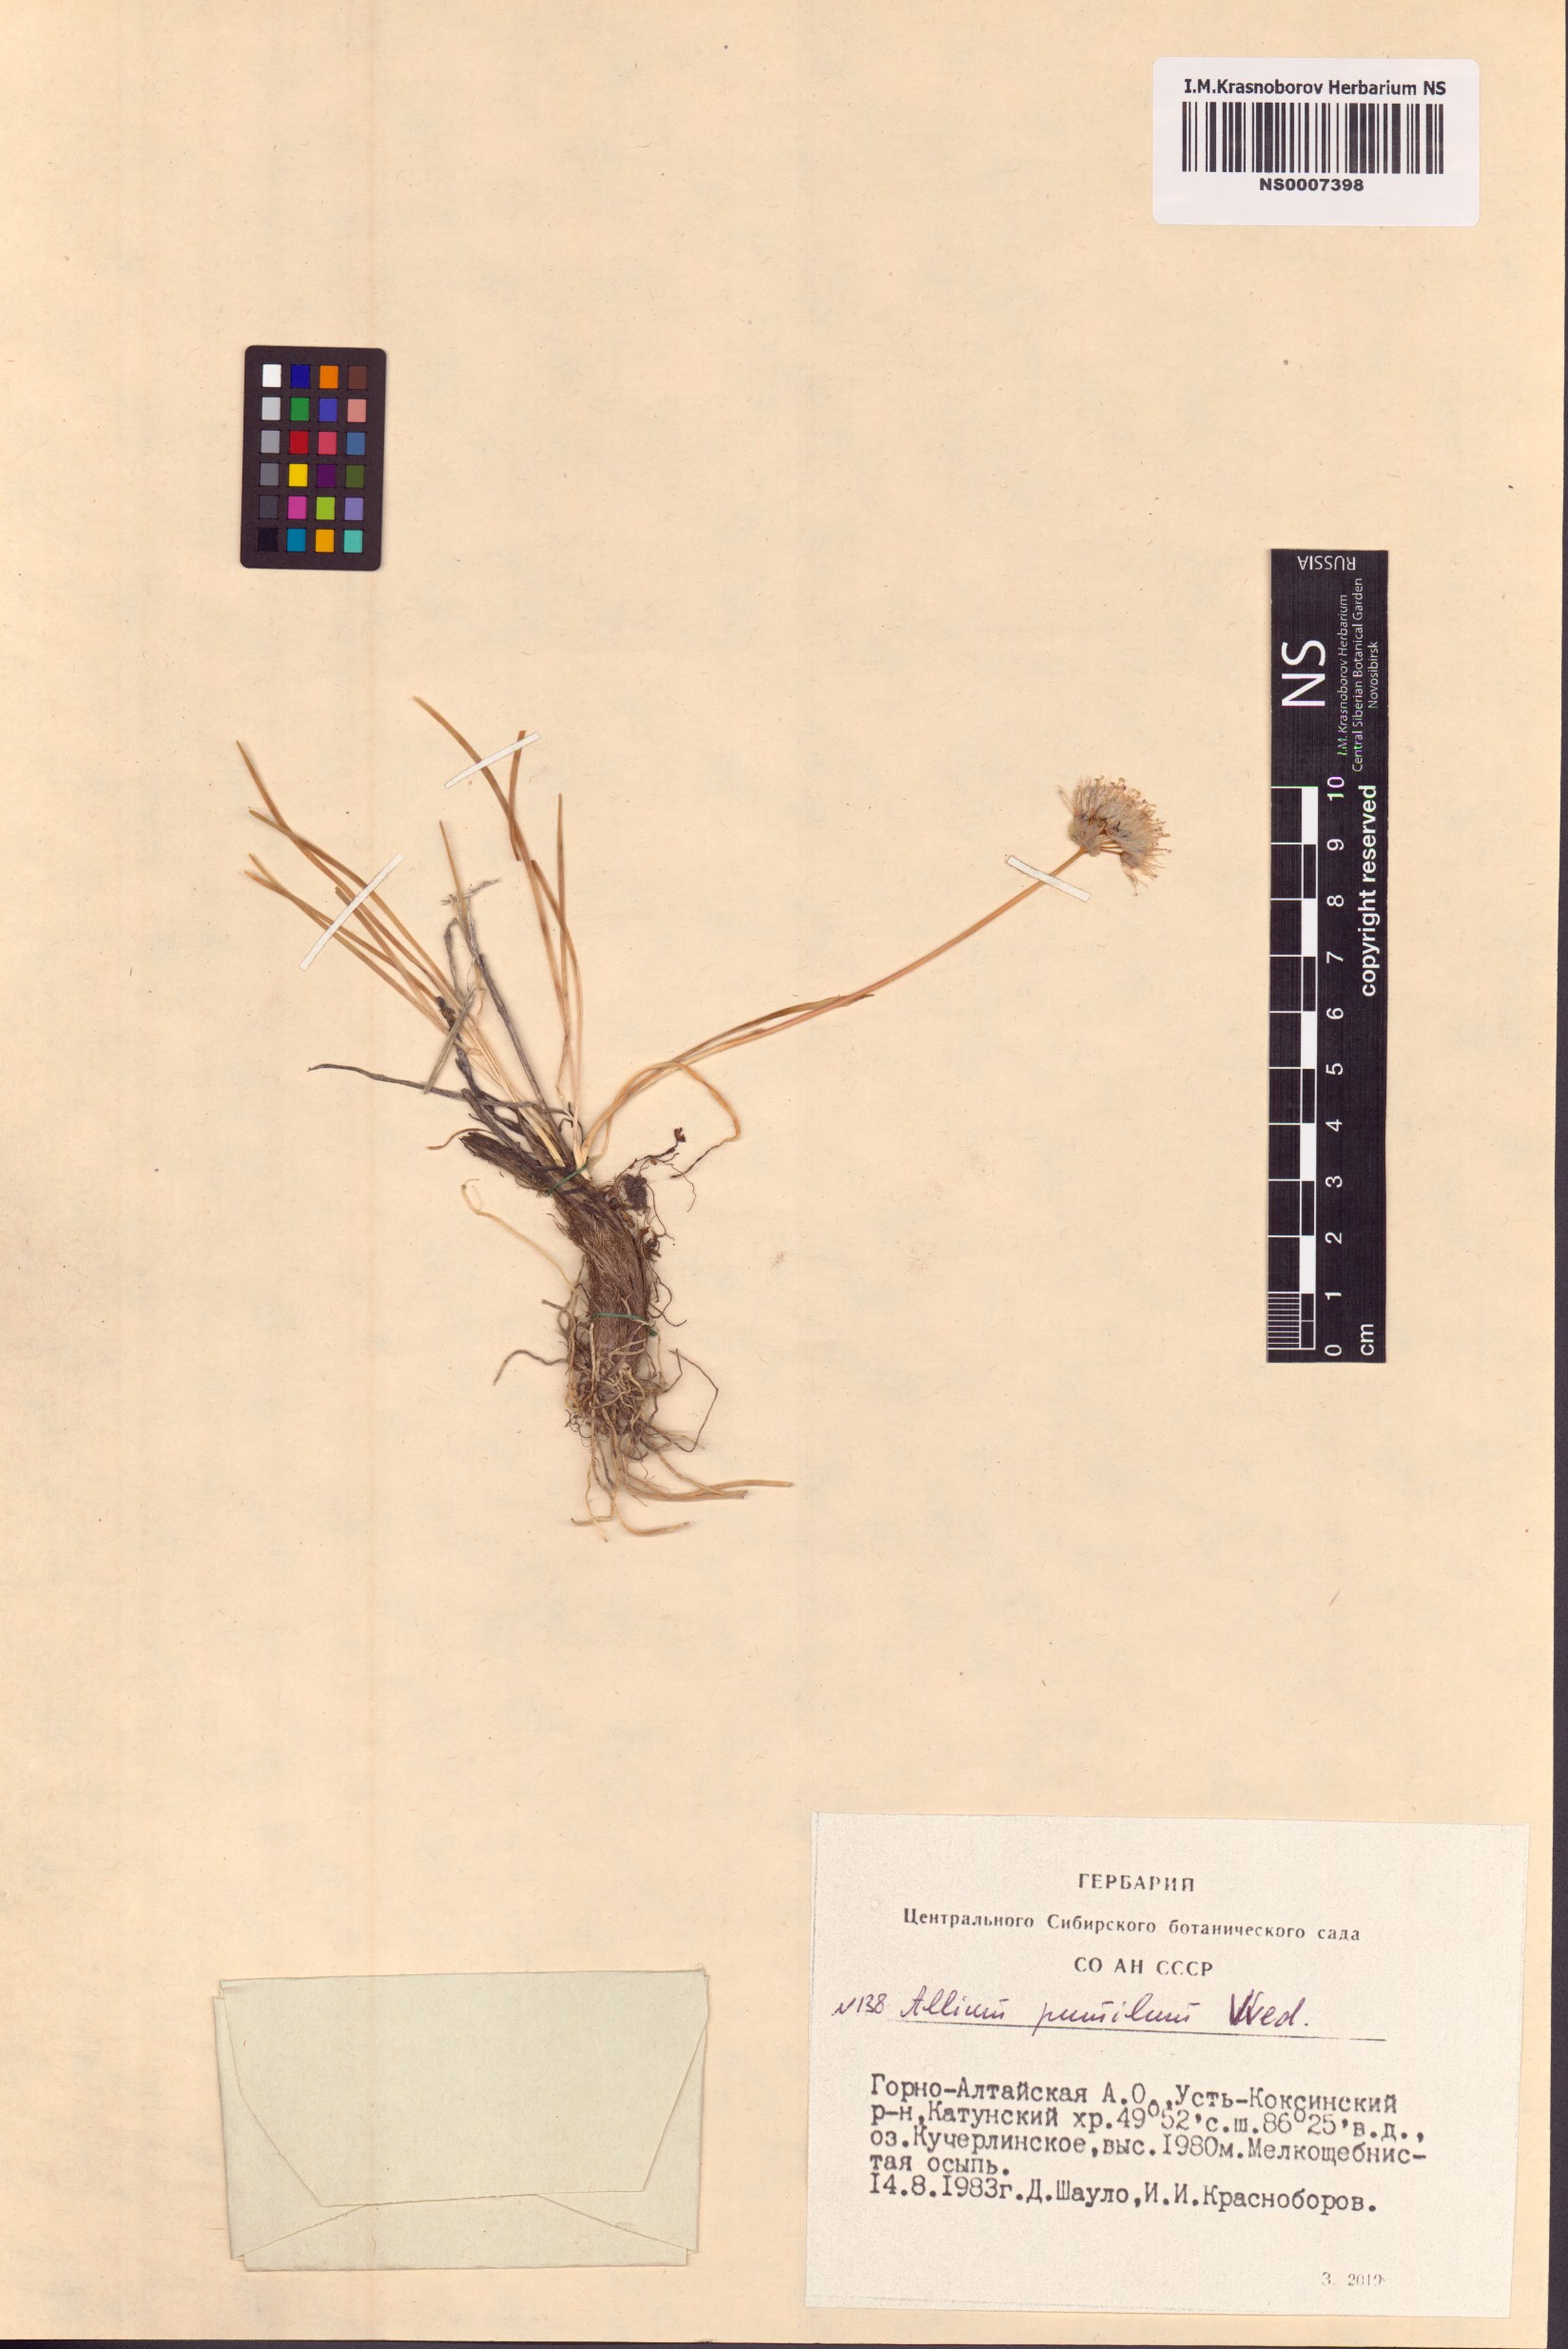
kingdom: Plantae
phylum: Tracheophyta
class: Liliopsida
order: Asparagales
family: Amaryllidaceae
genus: Allium
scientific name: Allium pumilum
